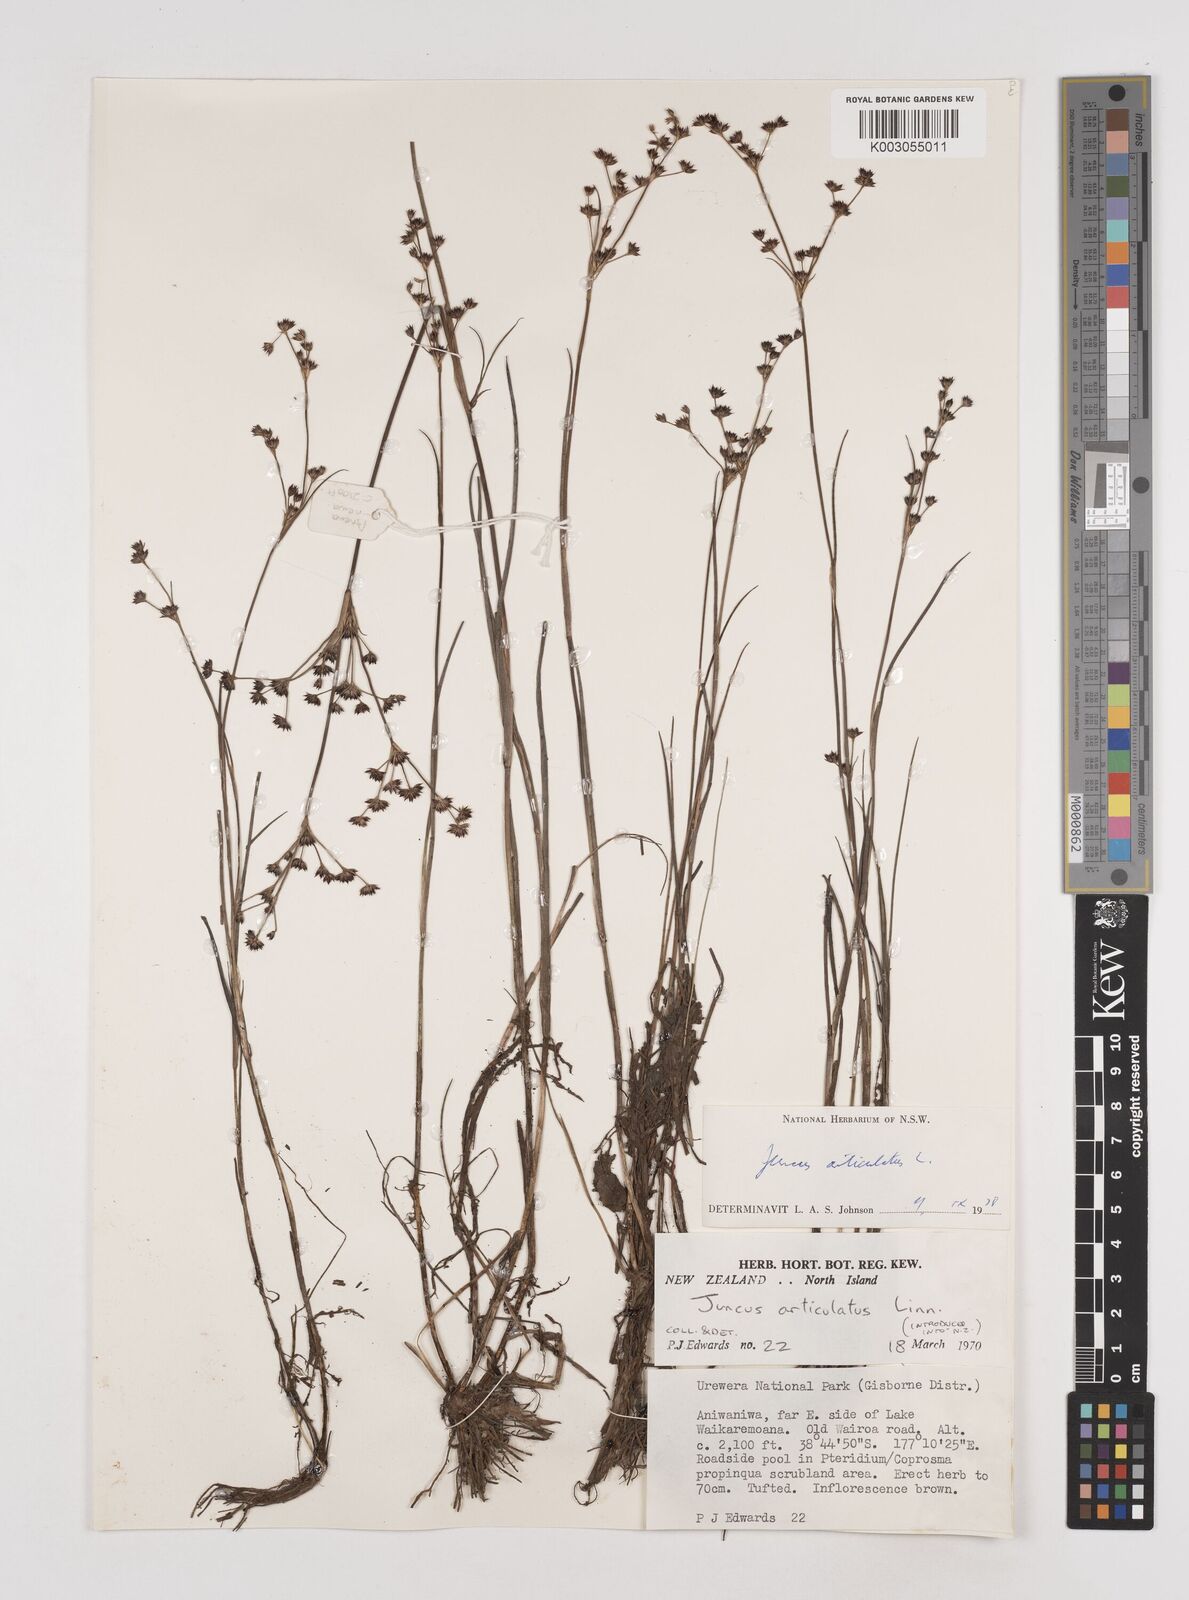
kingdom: Plantae
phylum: Tracheophyta
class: Liliopsida
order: Poales
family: Juncaceae
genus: Juncus
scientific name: Juncus articulatus
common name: Jointed rush
